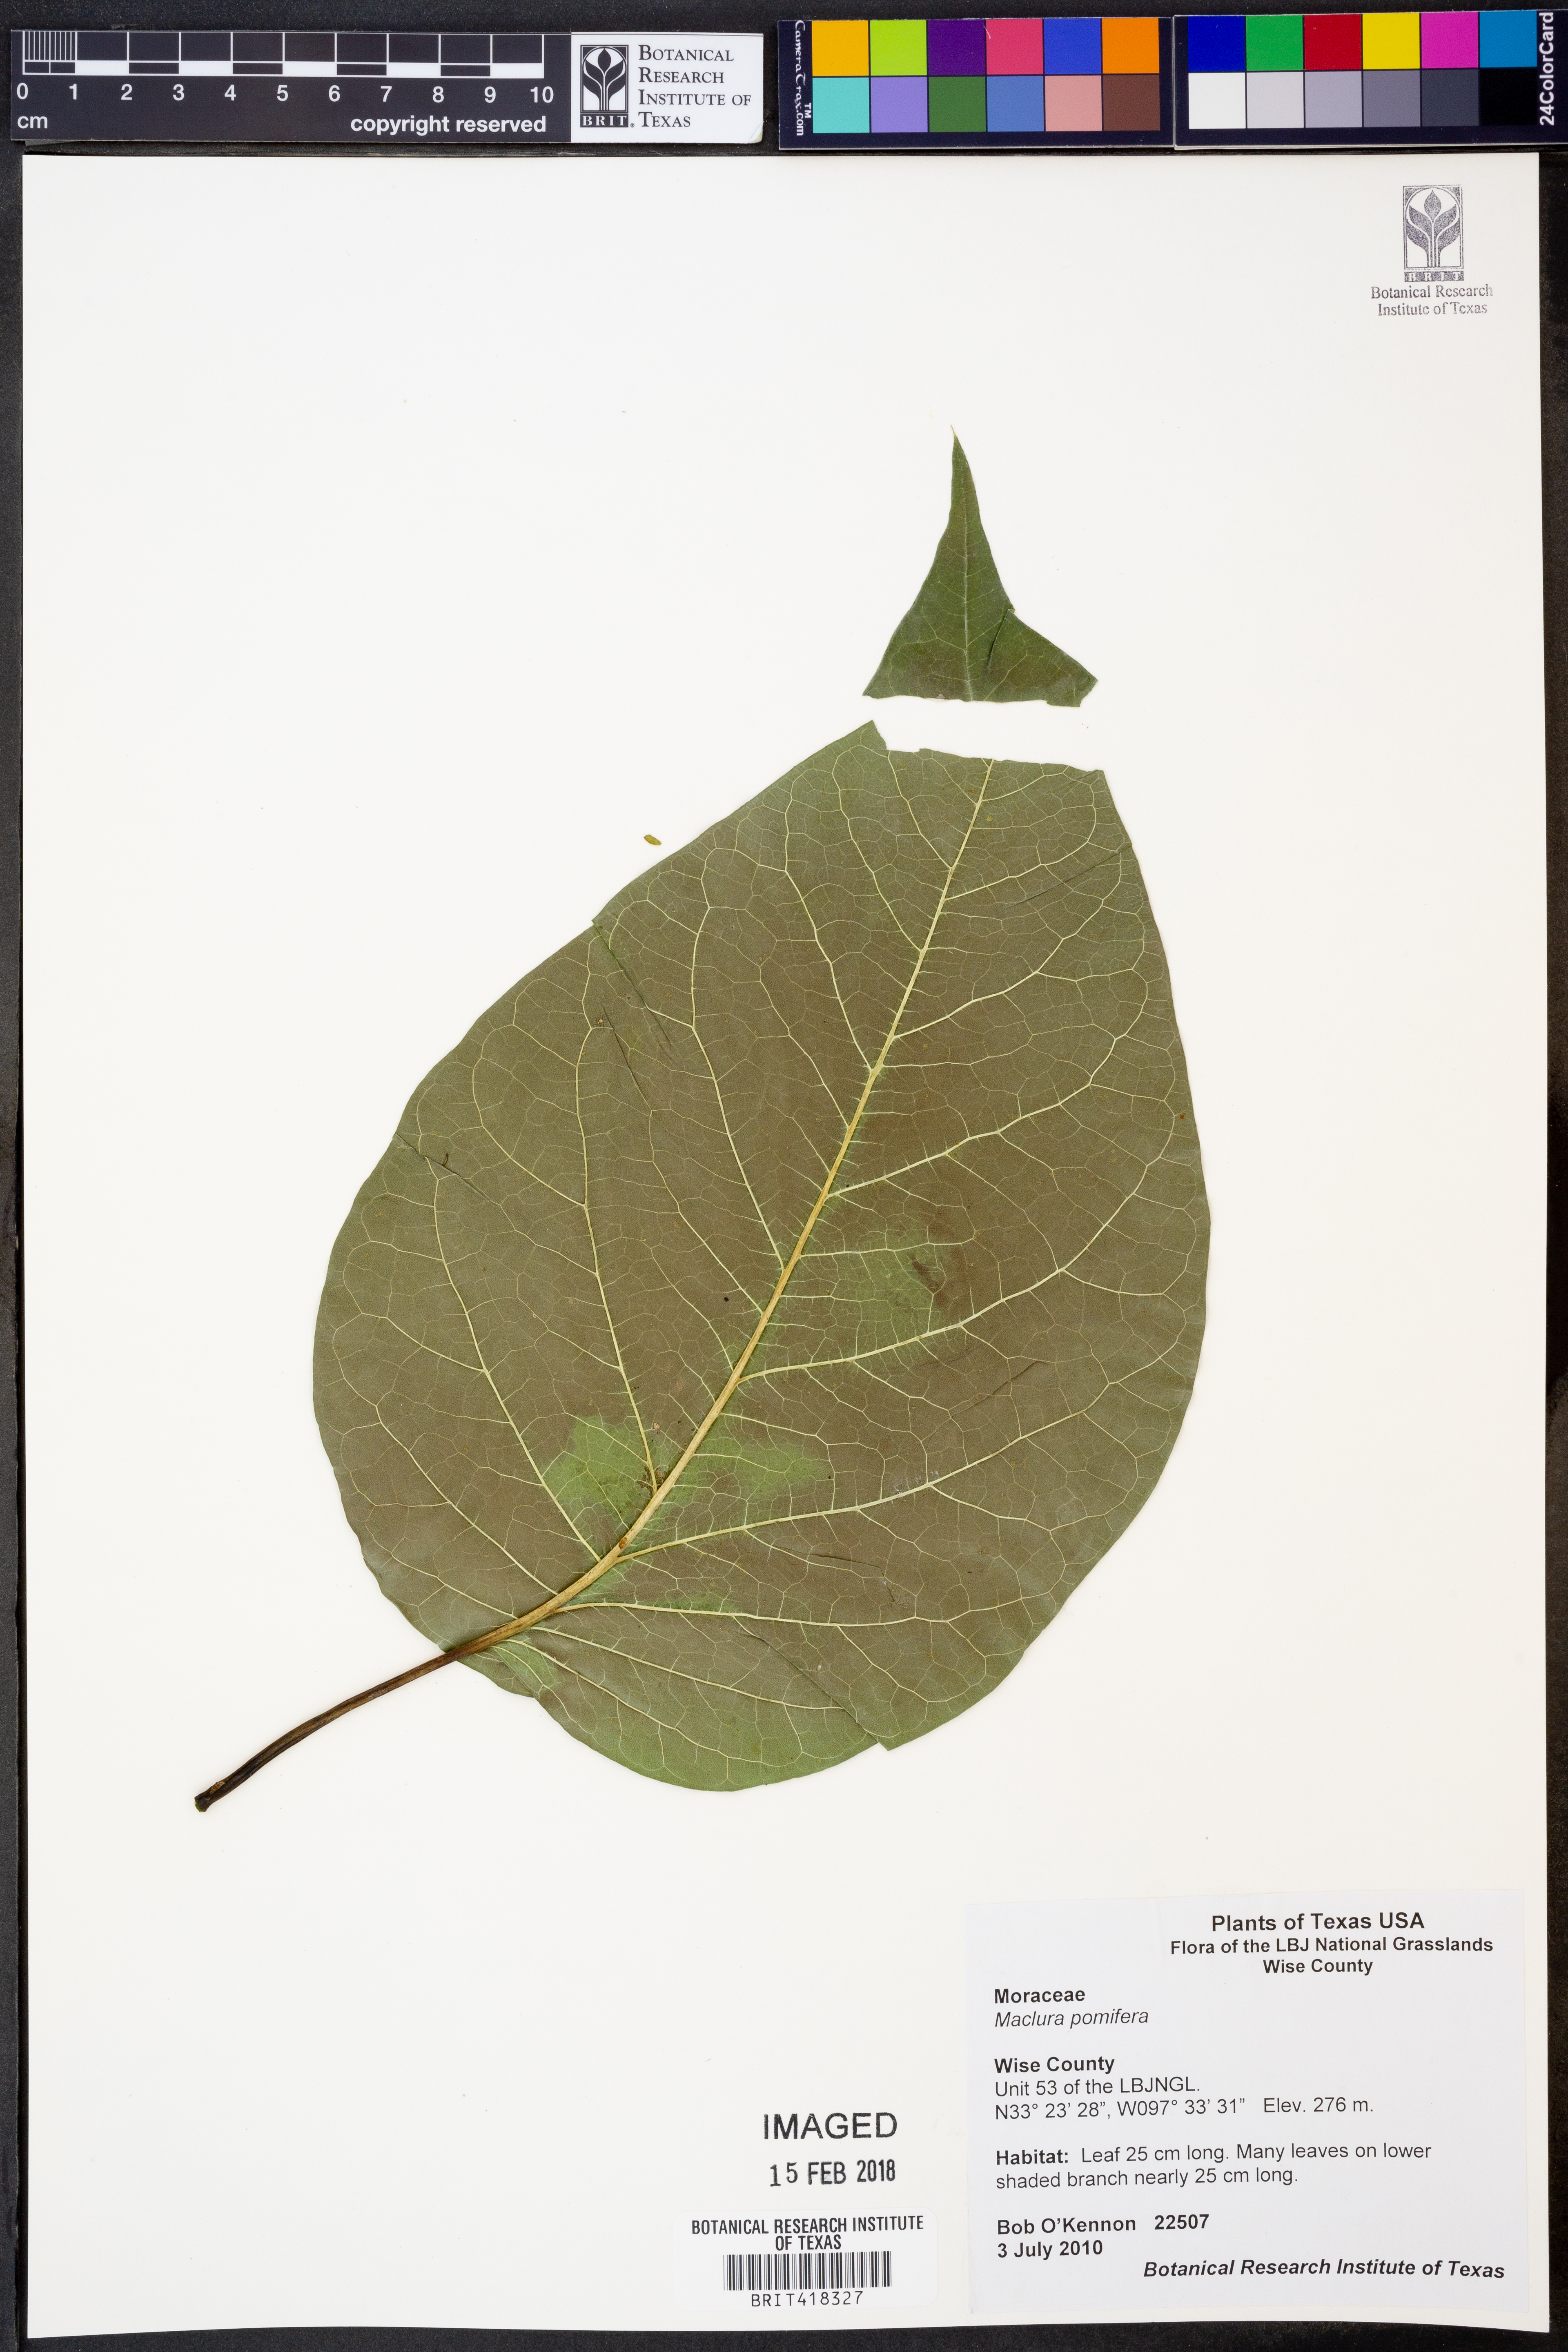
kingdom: Plantae
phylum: Tracheophyta
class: Magnoliopsida
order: Rosales
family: Moraceae
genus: Maclura
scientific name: Maclura pomifera
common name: Osage-orange
